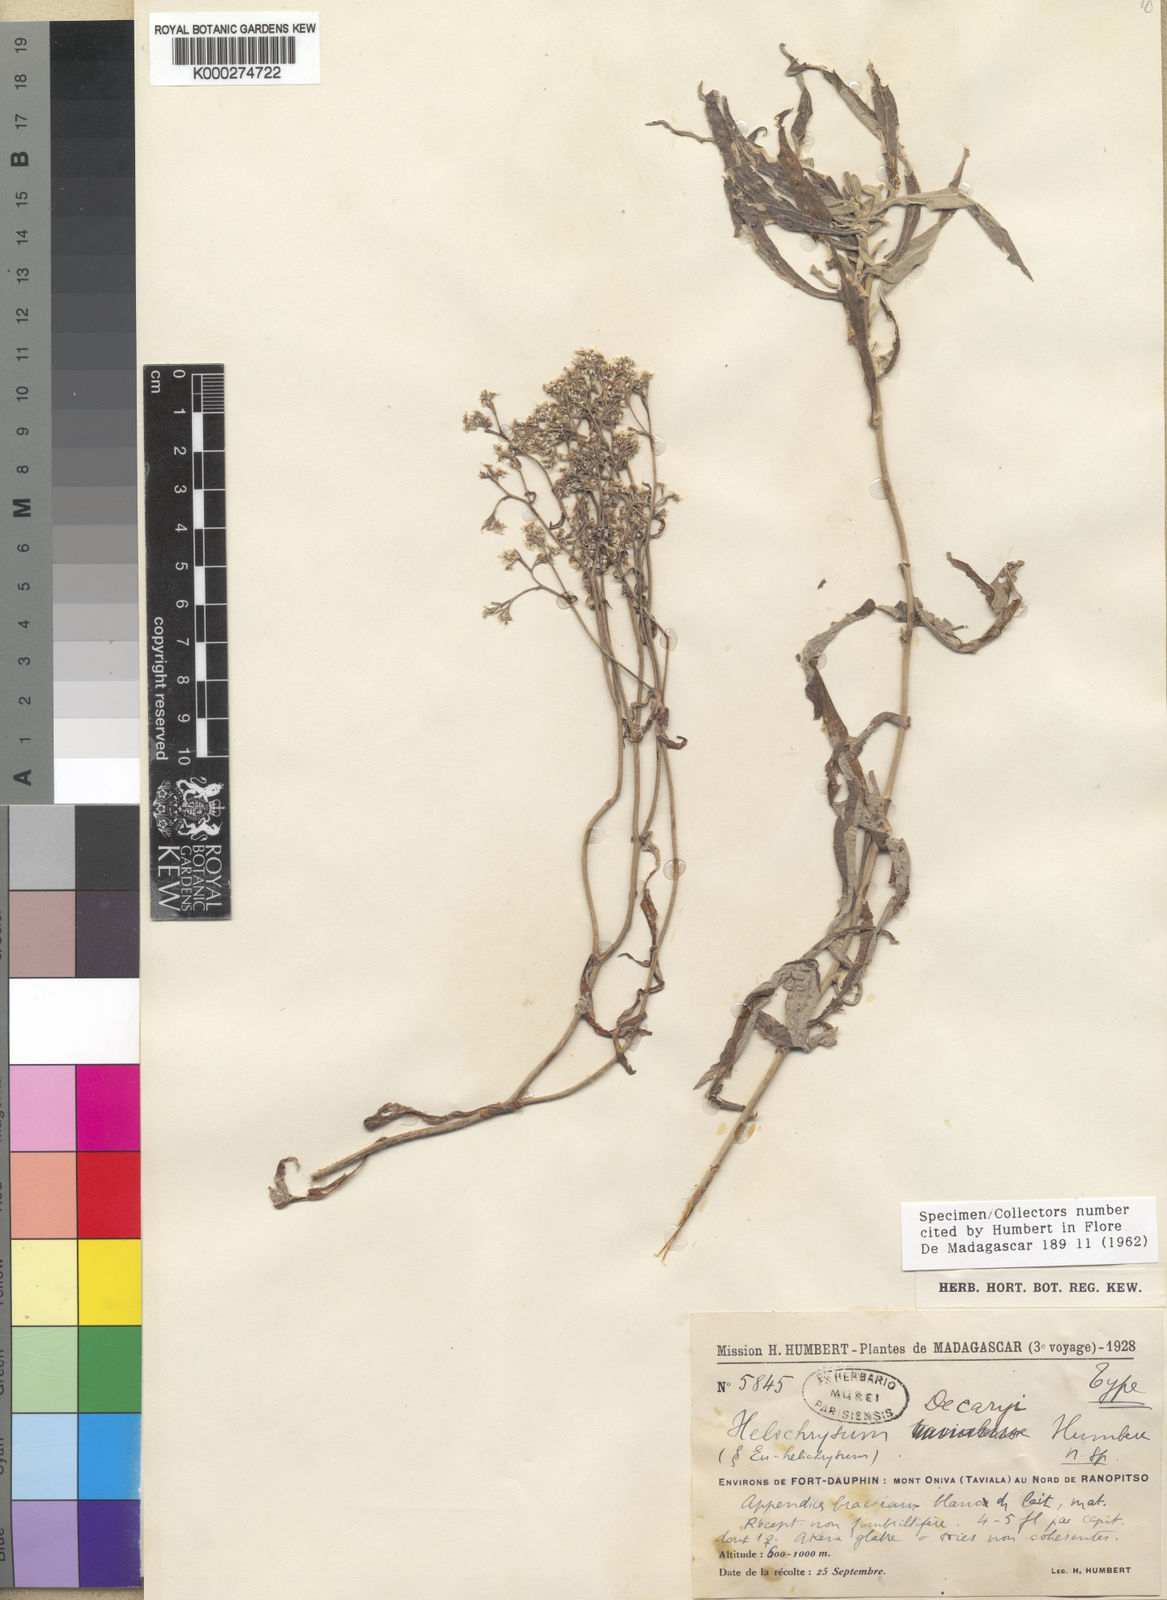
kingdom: Plantae
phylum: Tracheophyta
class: Magnoliopsida
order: Asterales
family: Asteraceae
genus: Helichrysum
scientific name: Helichrysum decaryi
